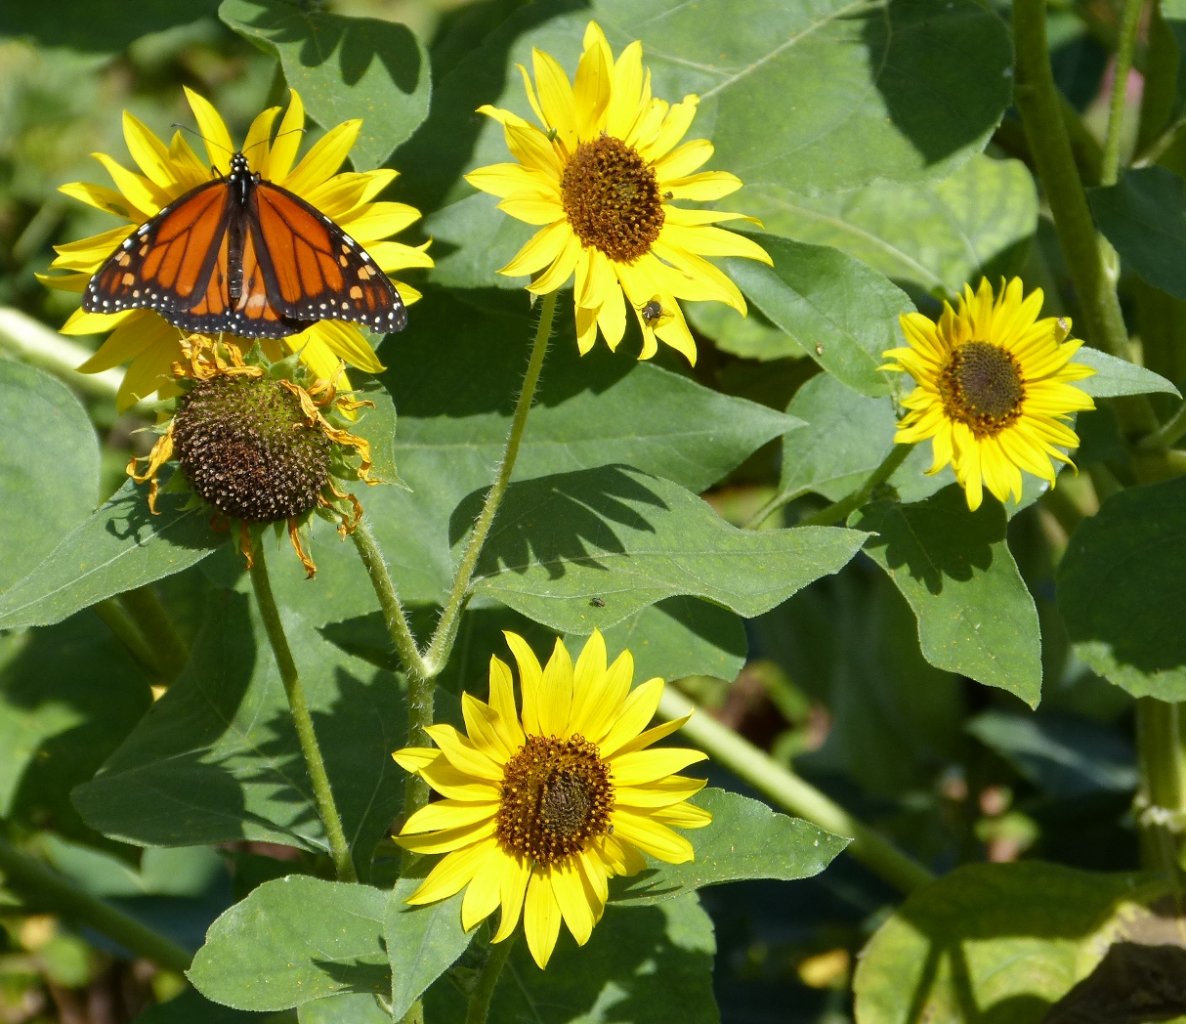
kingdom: Animalia
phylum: Arthropoda
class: Insecta
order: Lepidoptera
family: Nymphalidae
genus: Danaus
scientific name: Danaus plexippus
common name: Monarch
